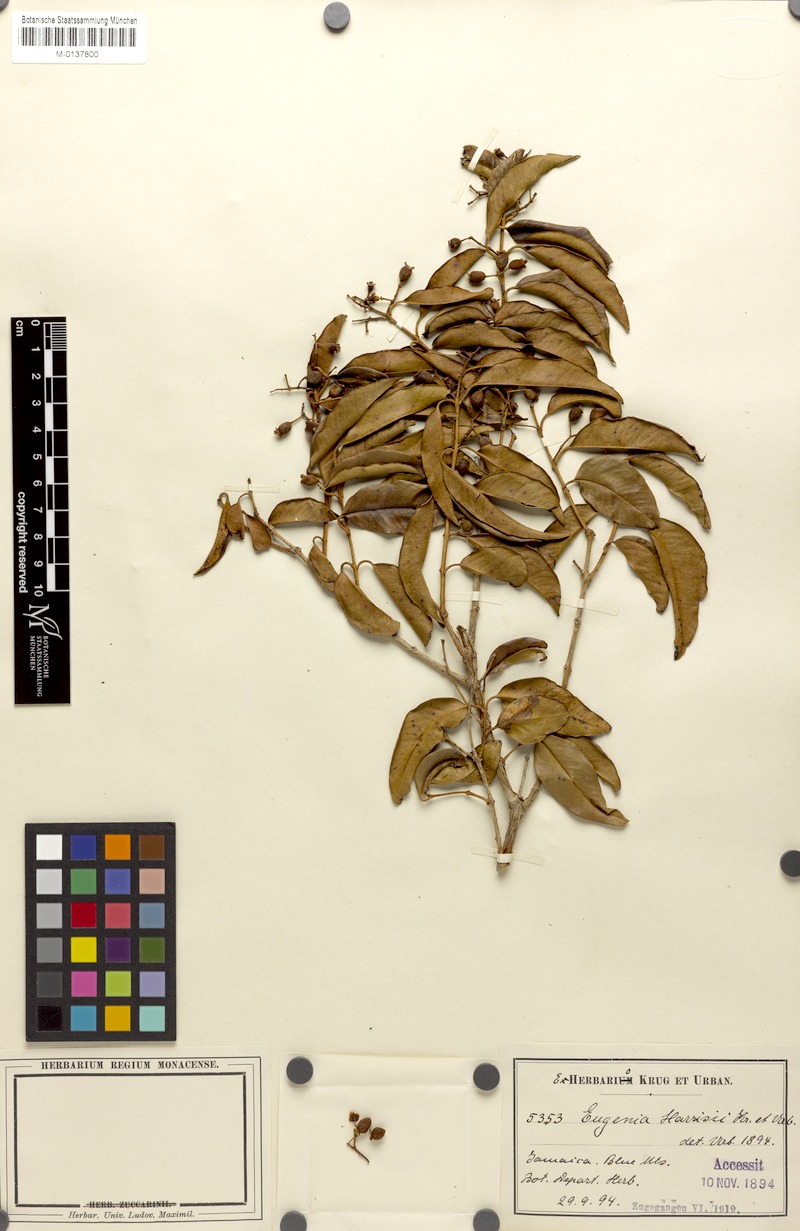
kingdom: Plantae
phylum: Tracheophyta
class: Magnoliopsida
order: Myrtales
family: Myrtaceae
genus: Eugenia
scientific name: Eugenia harrisii
